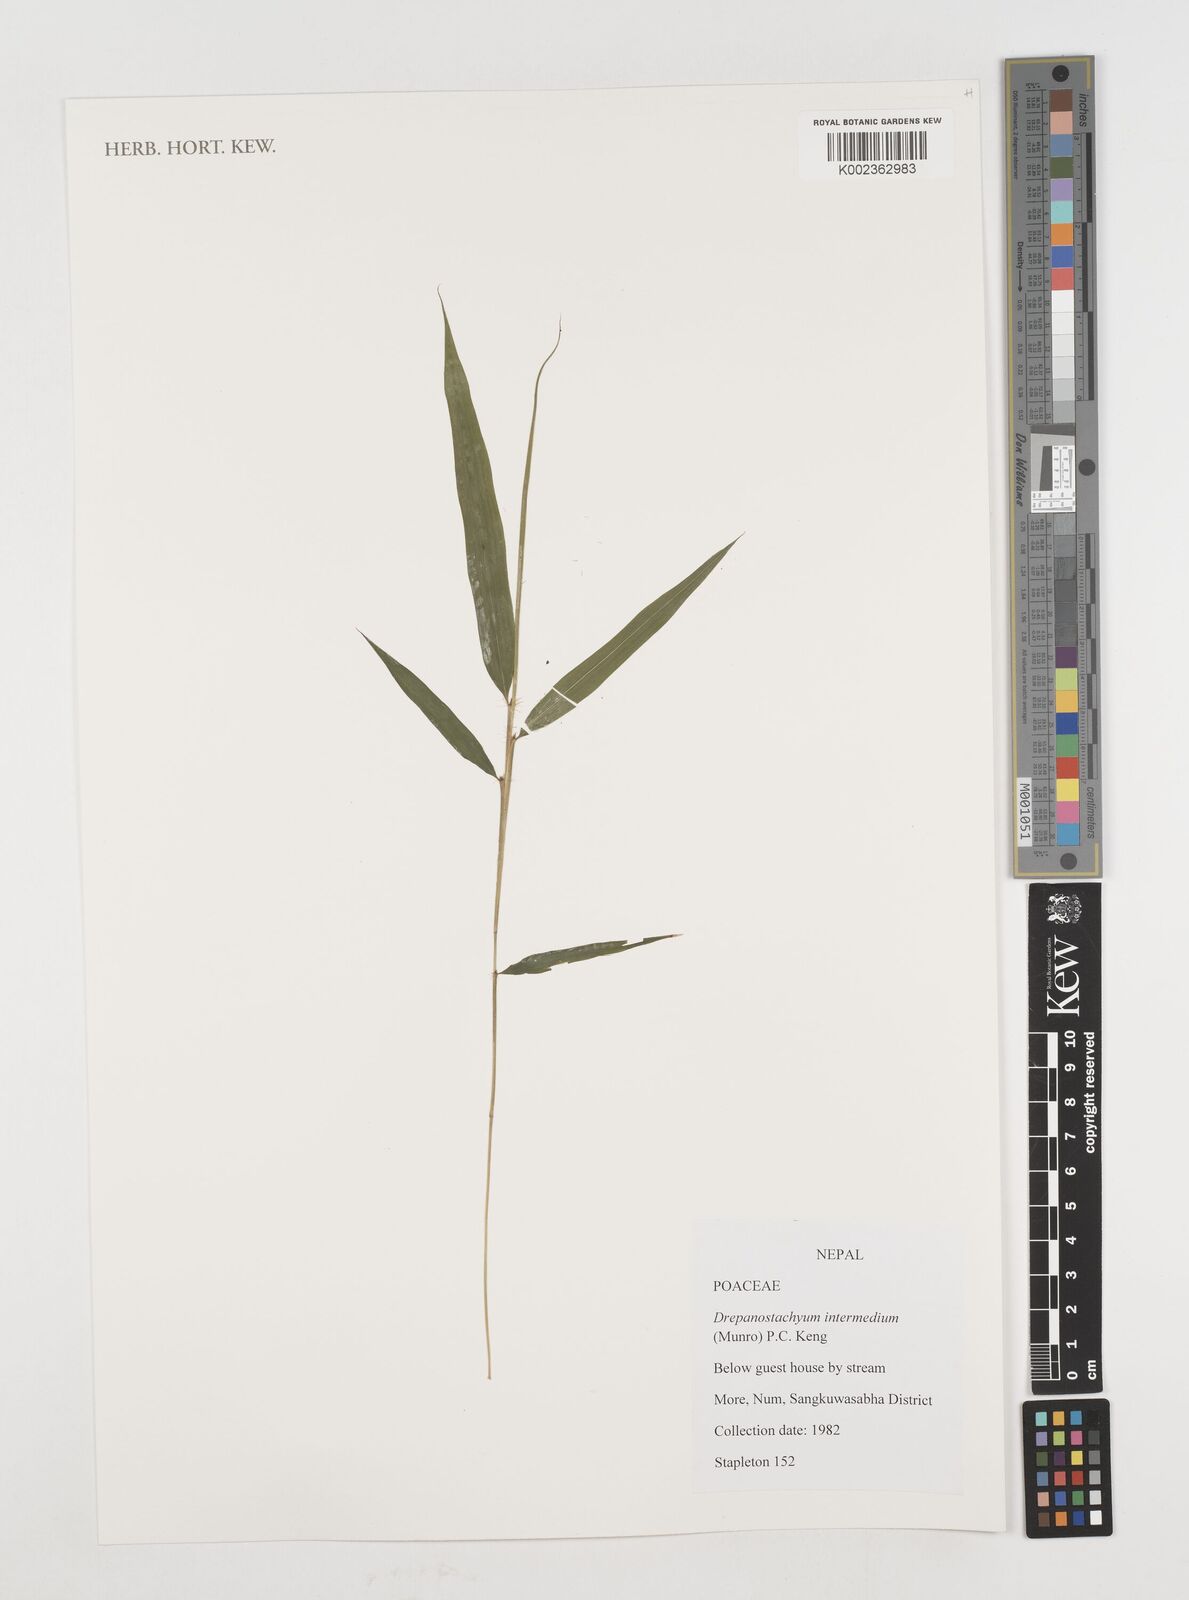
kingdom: Plantae
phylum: Tracheophyta
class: Liliopsida
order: Poales
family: Poaceae
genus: Drepanostachyum
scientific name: Drepanostachyum intermedium
